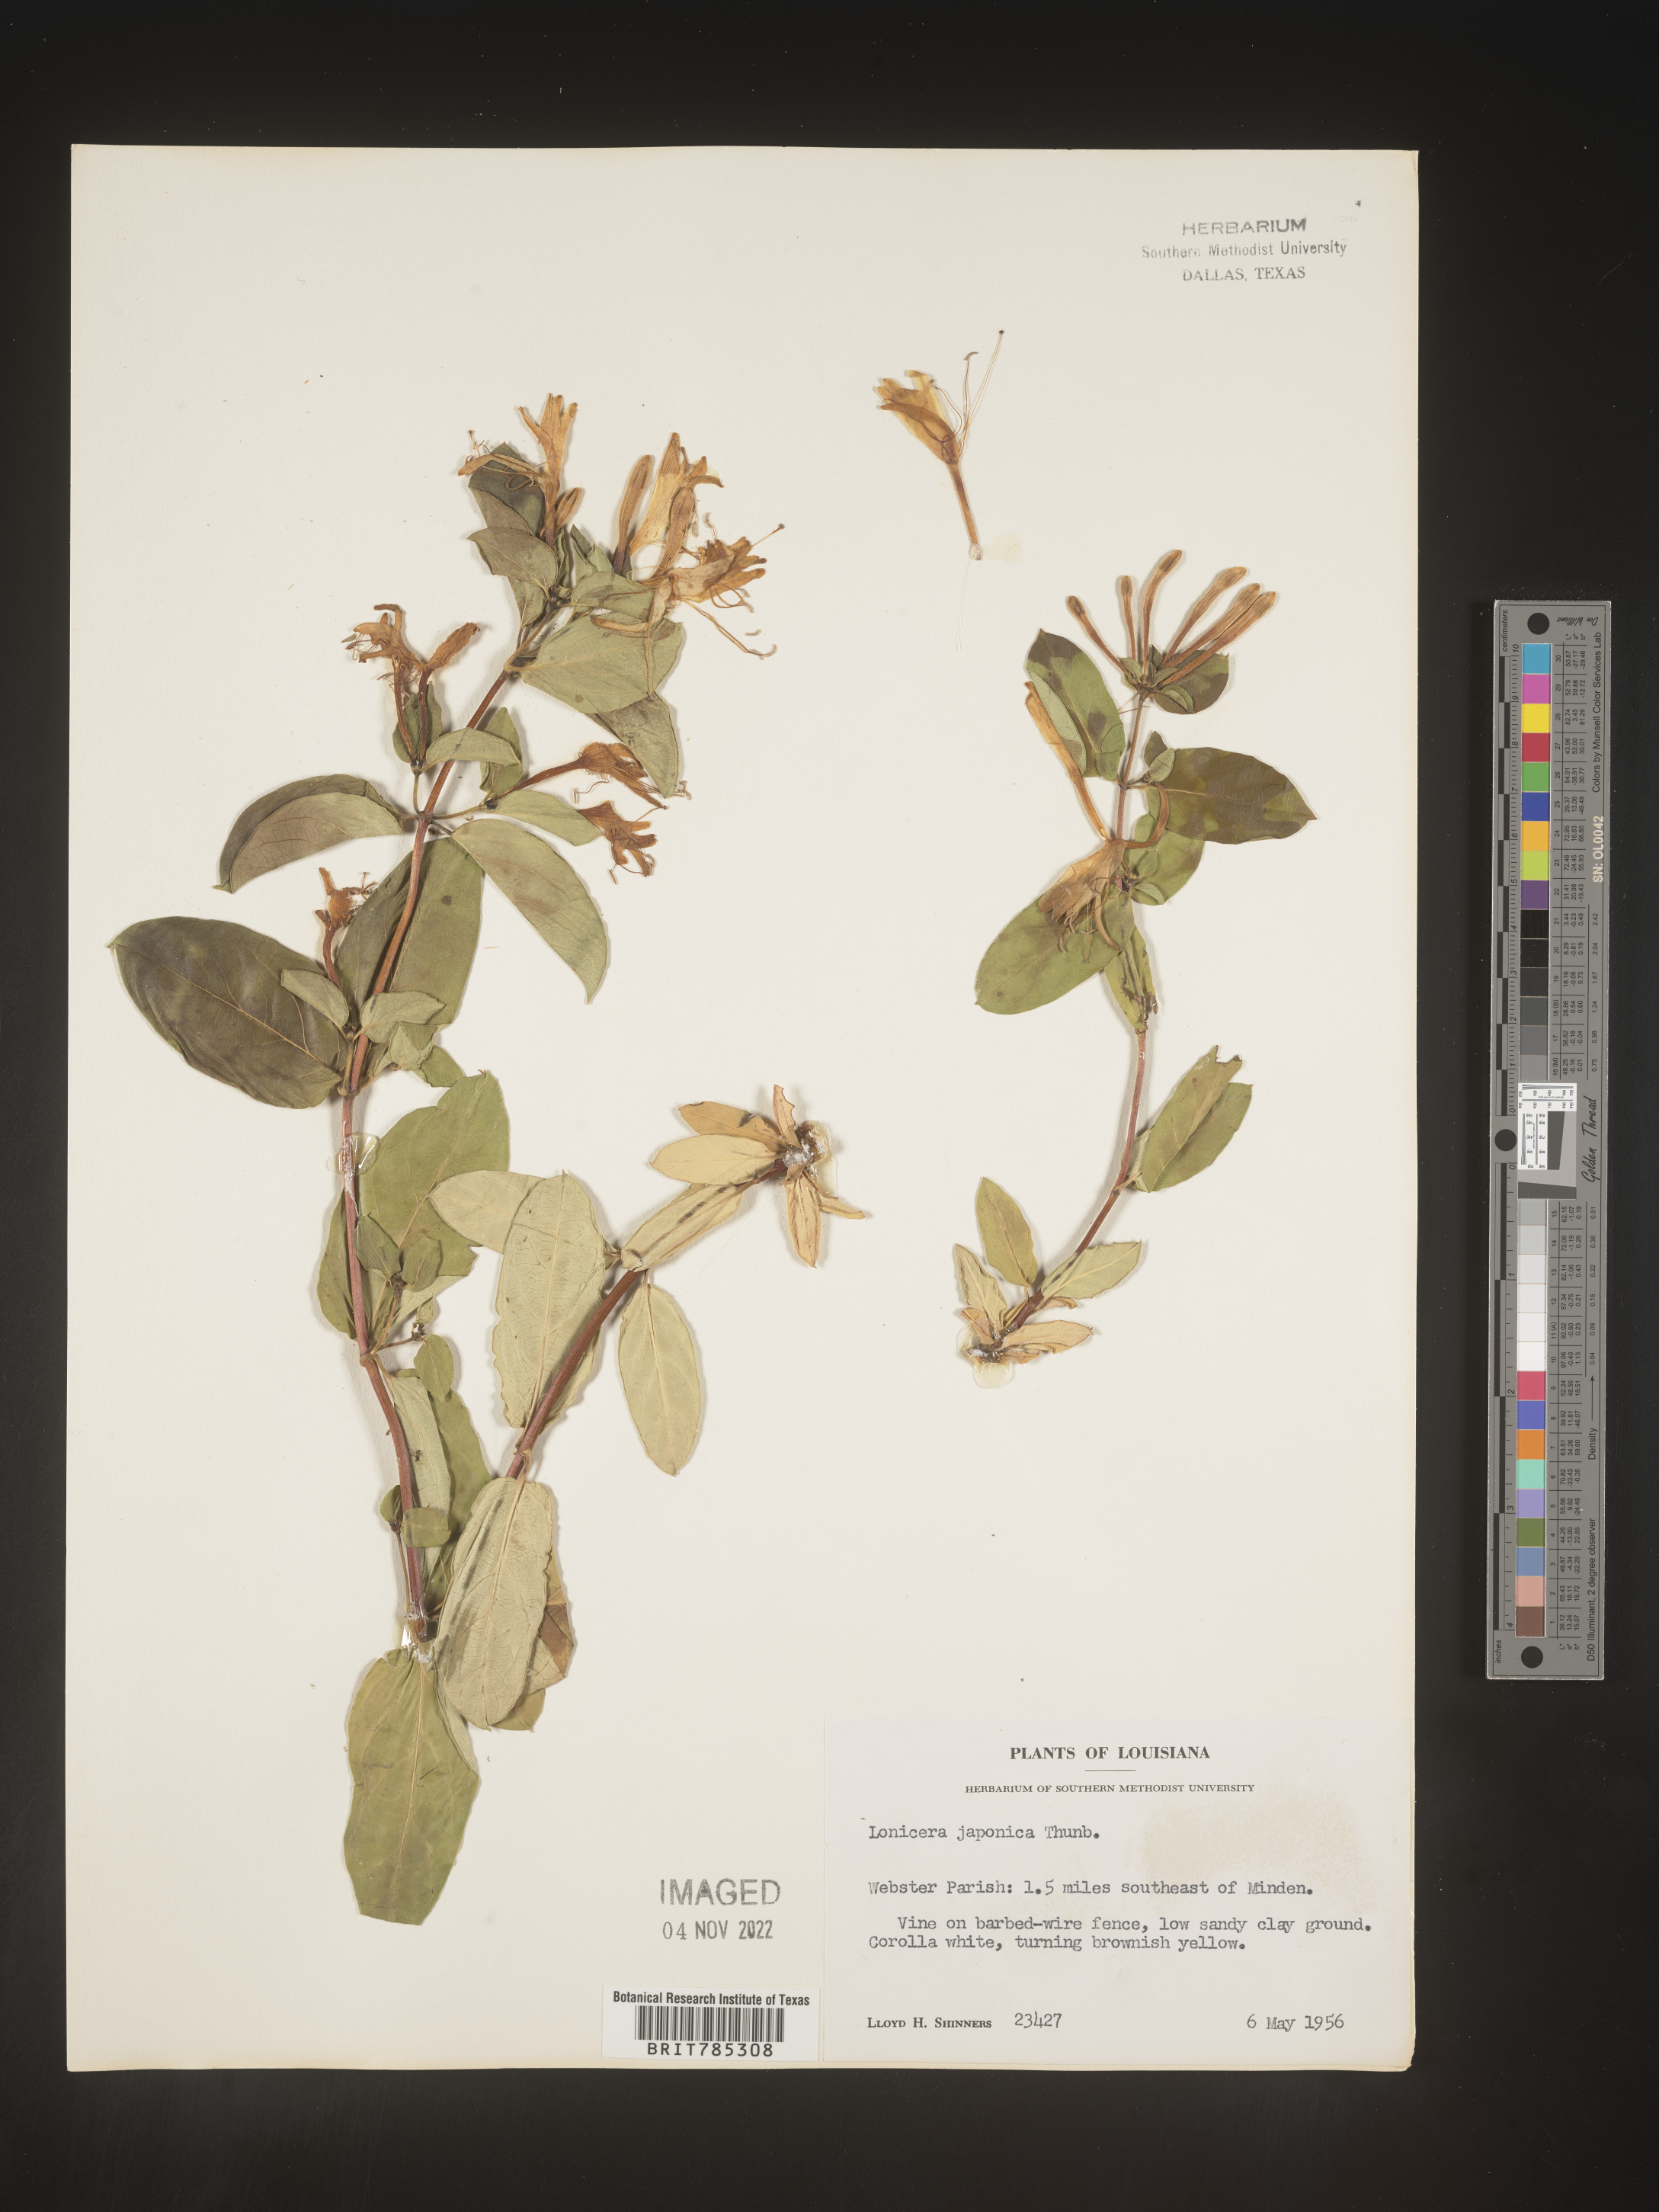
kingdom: Plantae
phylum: Tracheophyta
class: Magnoliopsida
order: Dipsacales
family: Caprifoliaceae
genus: Lonicera
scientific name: Lonicera japonica
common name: Japanese honeysuckle
